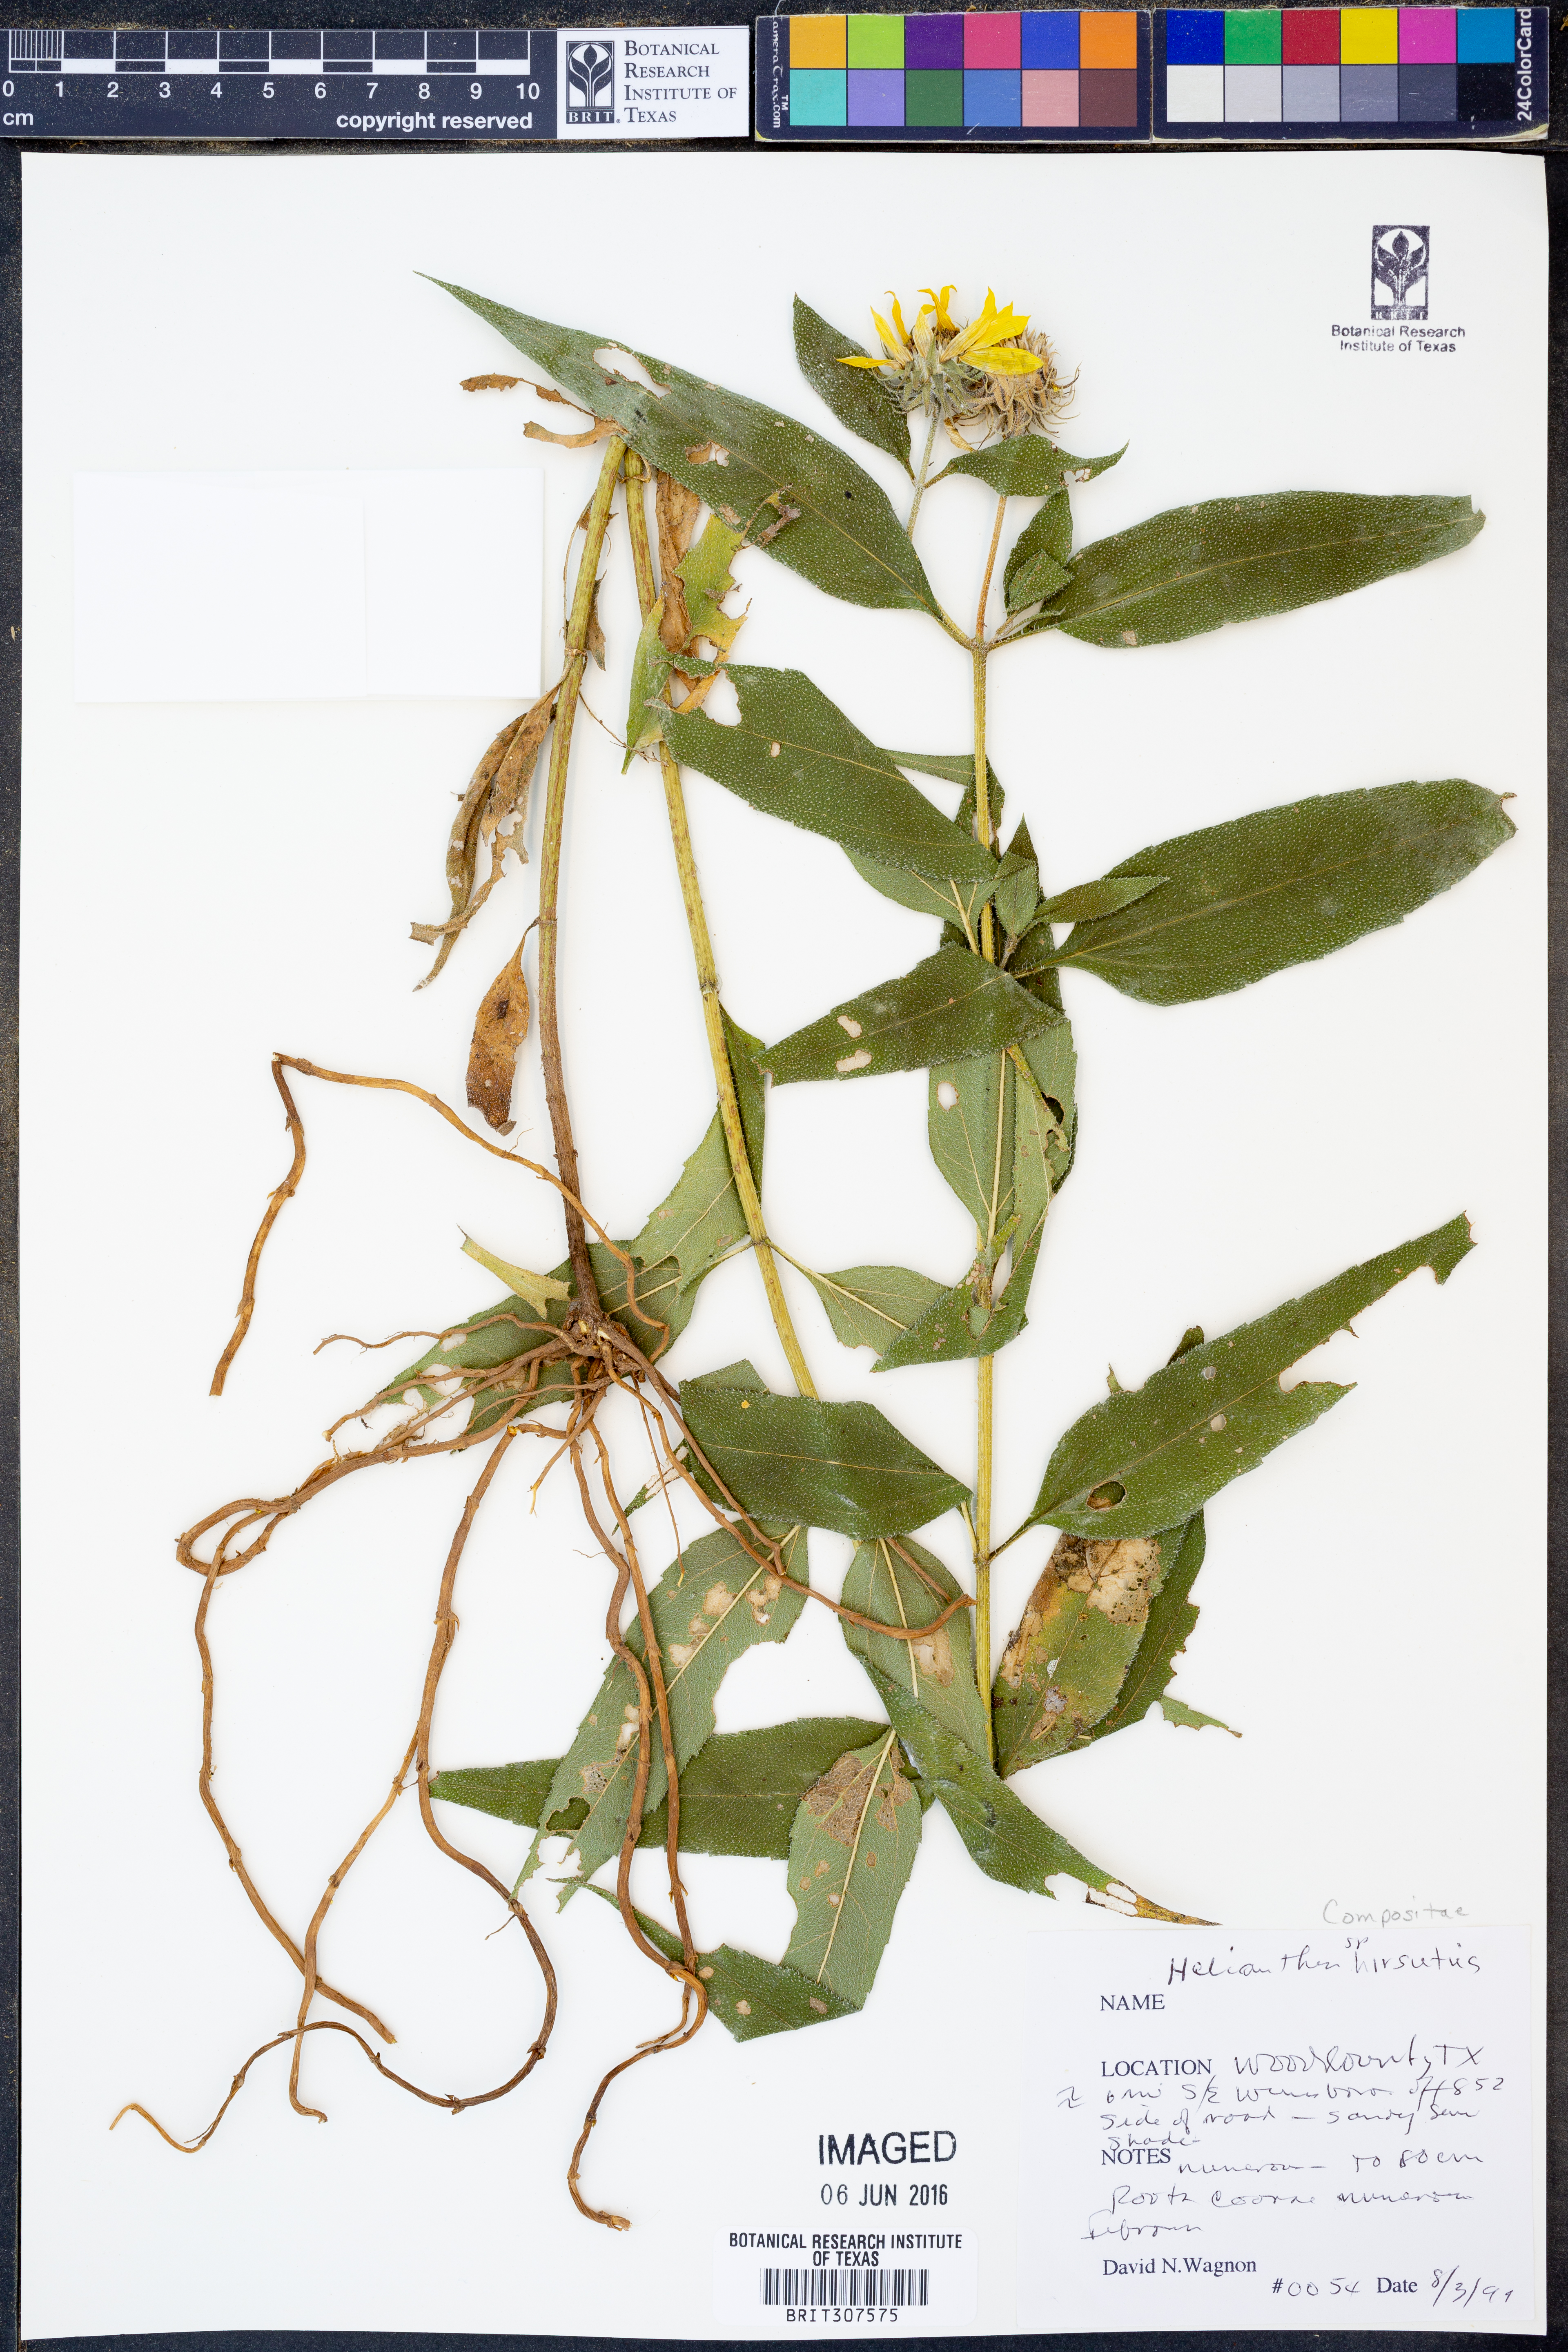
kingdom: Plantae
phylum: Tracheophyta
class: Magnoliopsida
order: Asterales
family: Asteraceae
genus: Helianthus
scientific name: Helianthus hirsutus
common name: Hairy sunflower
